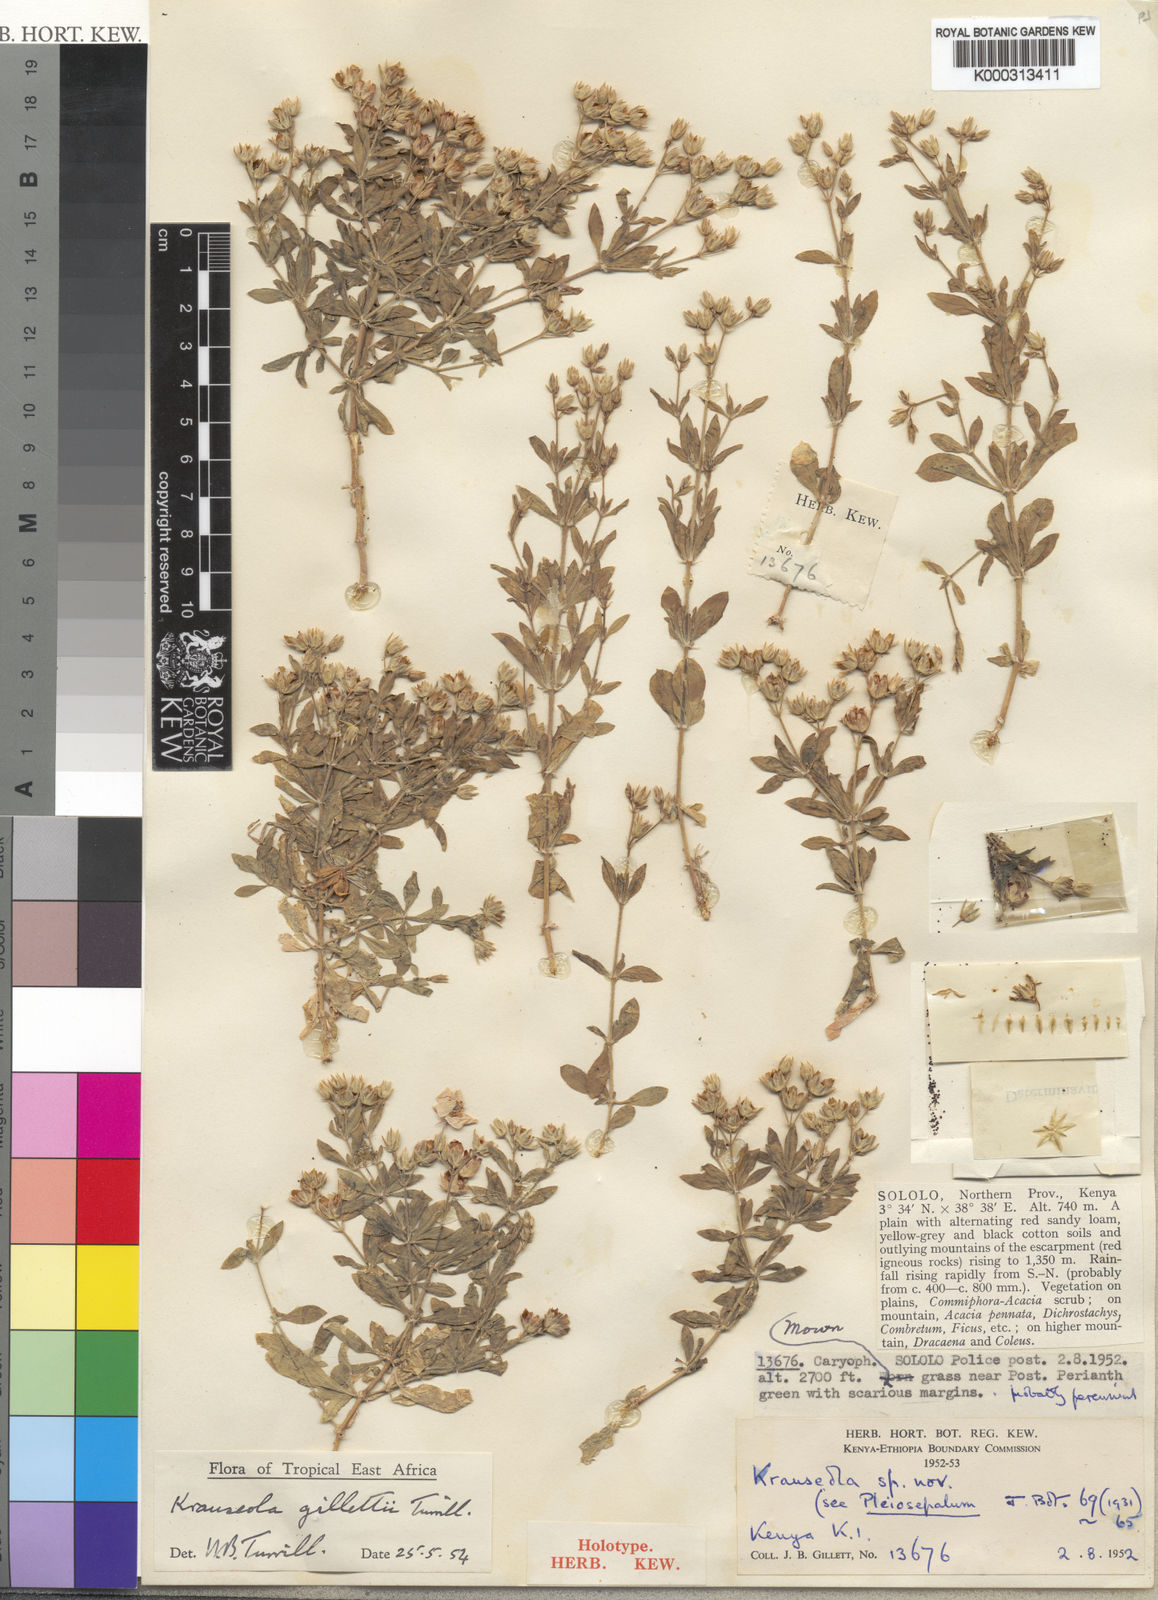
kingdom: Plantae
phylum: Tracheophyta
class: Magnoliopsida
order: Caryophyllales
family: Caryophyllaceae
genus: Krauseola
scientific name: Krauseola gillettii
